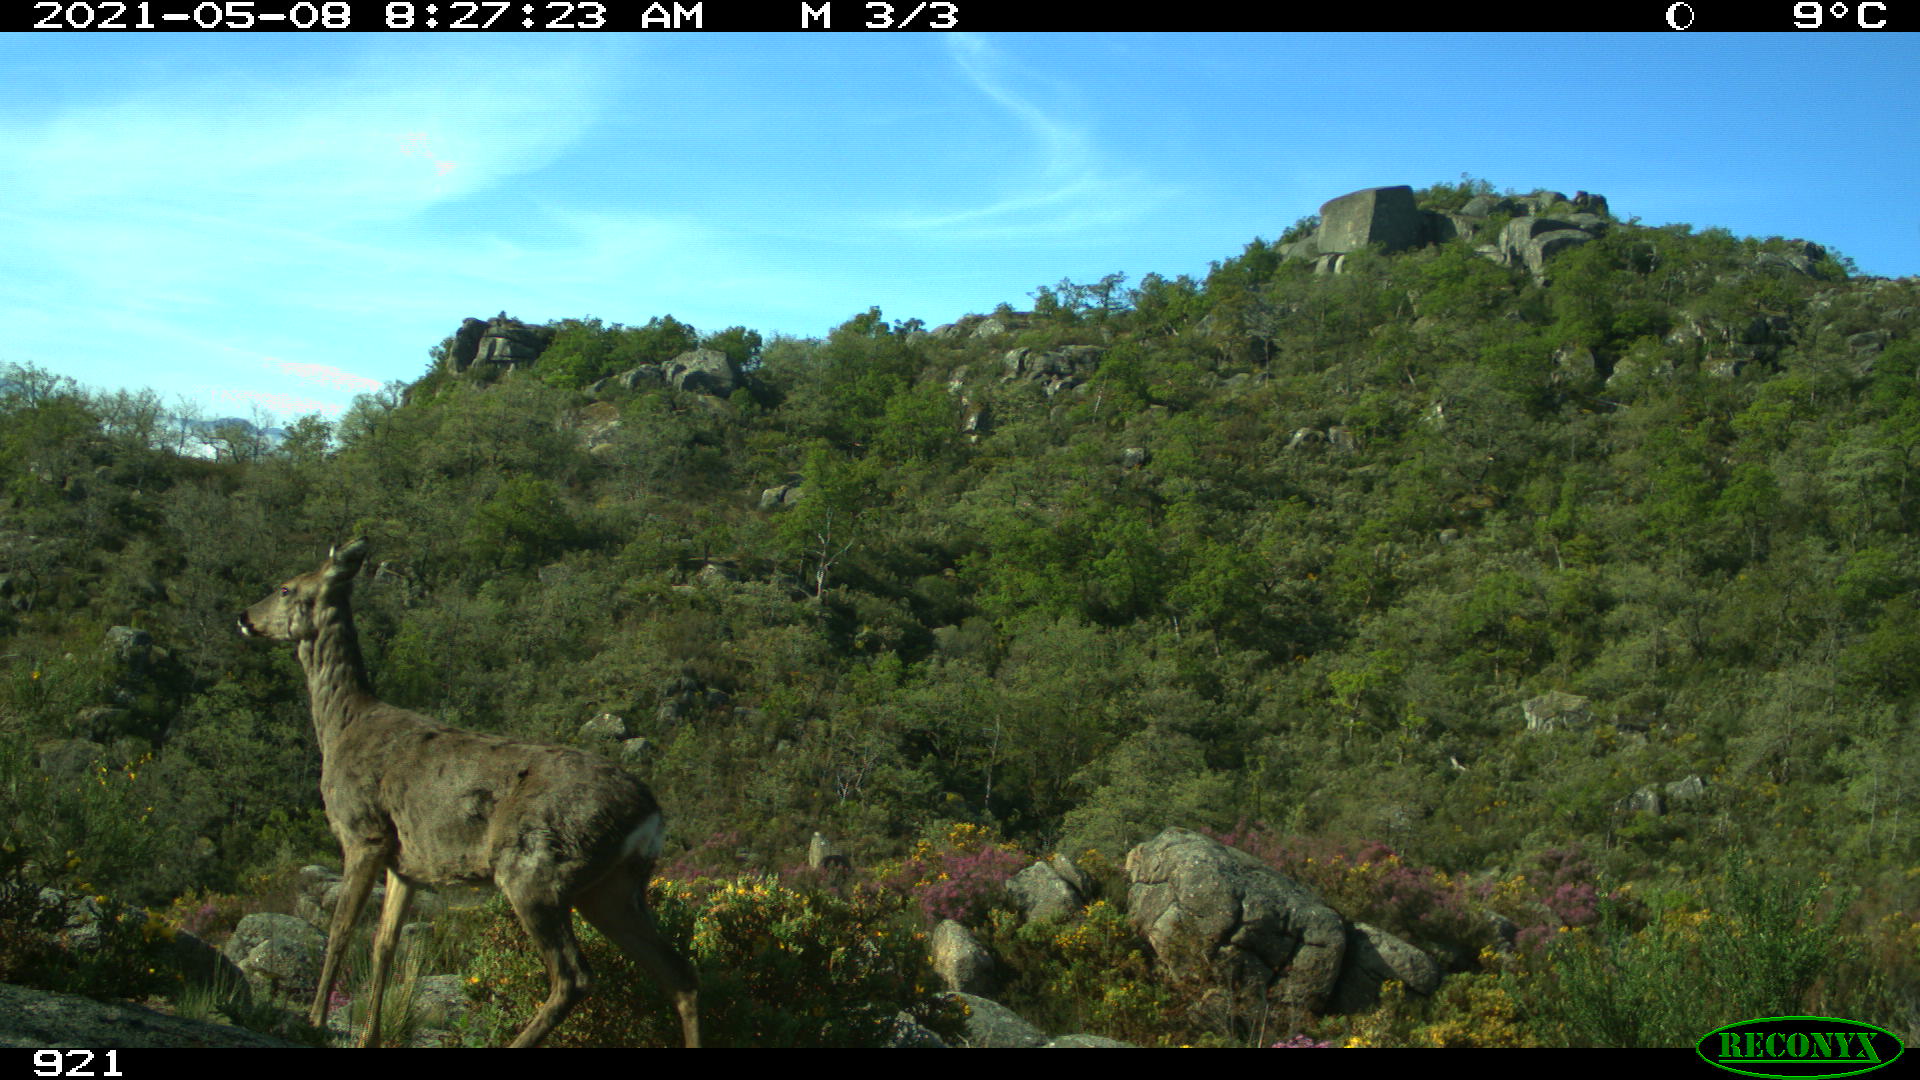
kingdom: Animalia
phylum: Chordata
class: Mammalia
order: Artiodactyla
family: Cervidae
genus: Capreolus
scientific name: Capreolus capreolus
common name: Western roe deer
